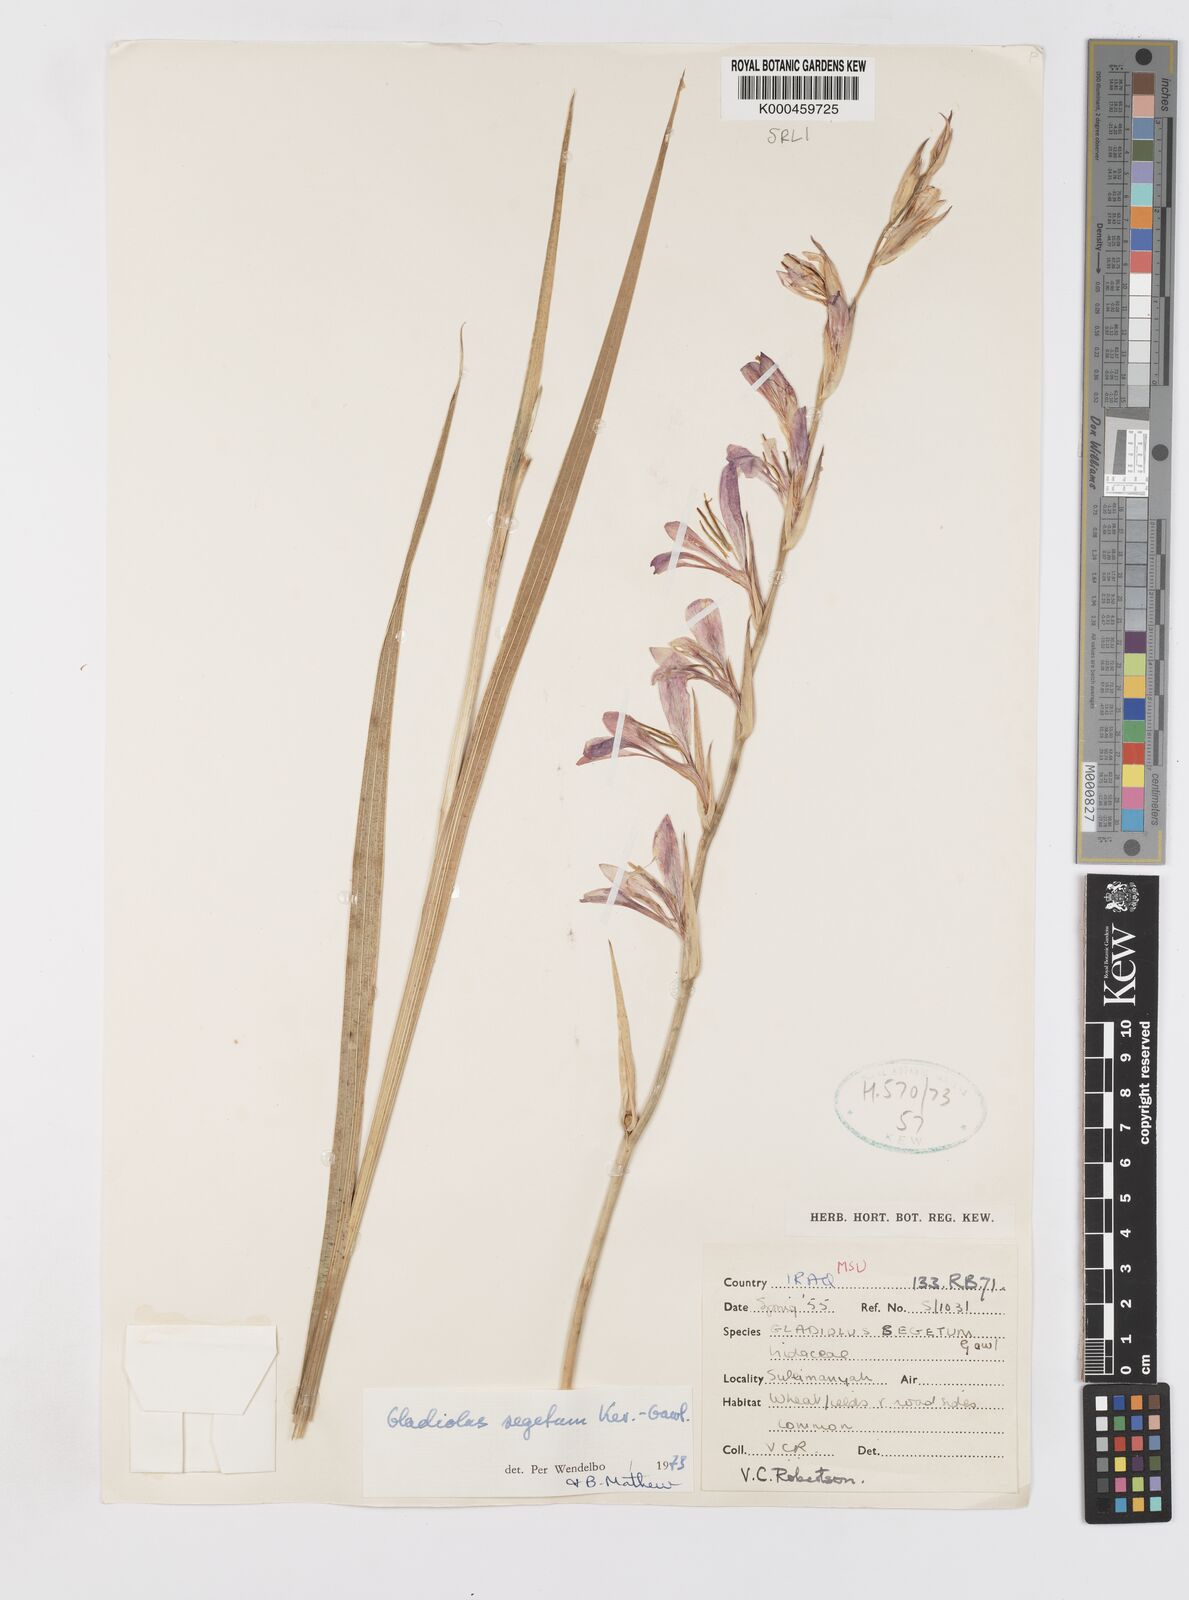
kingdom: Plantae
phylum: Tracheophyta
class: Liliopsida
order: Asparagales
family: Iridaceae
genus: Gladiolus
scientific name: Gladiolus italicus
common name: Field gladiolus
